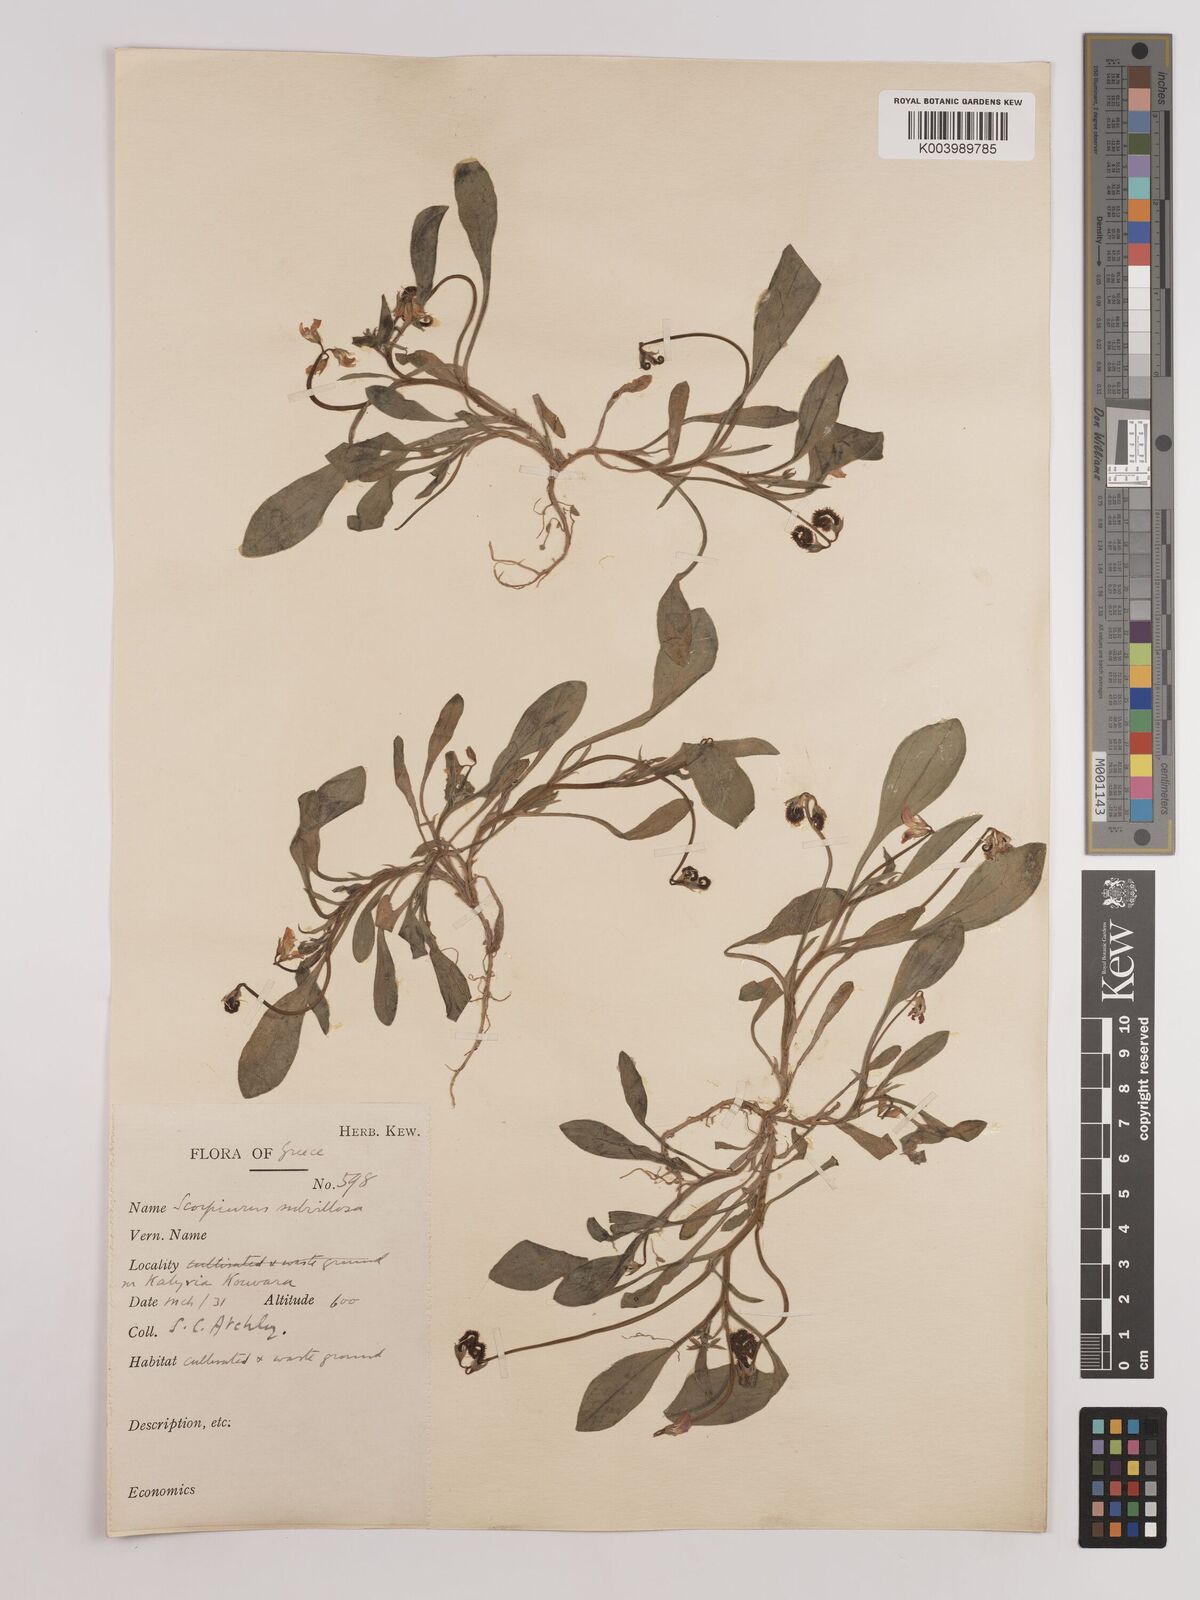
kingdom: Plantae
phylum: Tracheophyta
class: Magnoliopsida
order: Fabales
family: Fabaceae
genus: Scorpiurus
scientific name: Scorpiurus muricatus
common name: Caterpillar-plant
